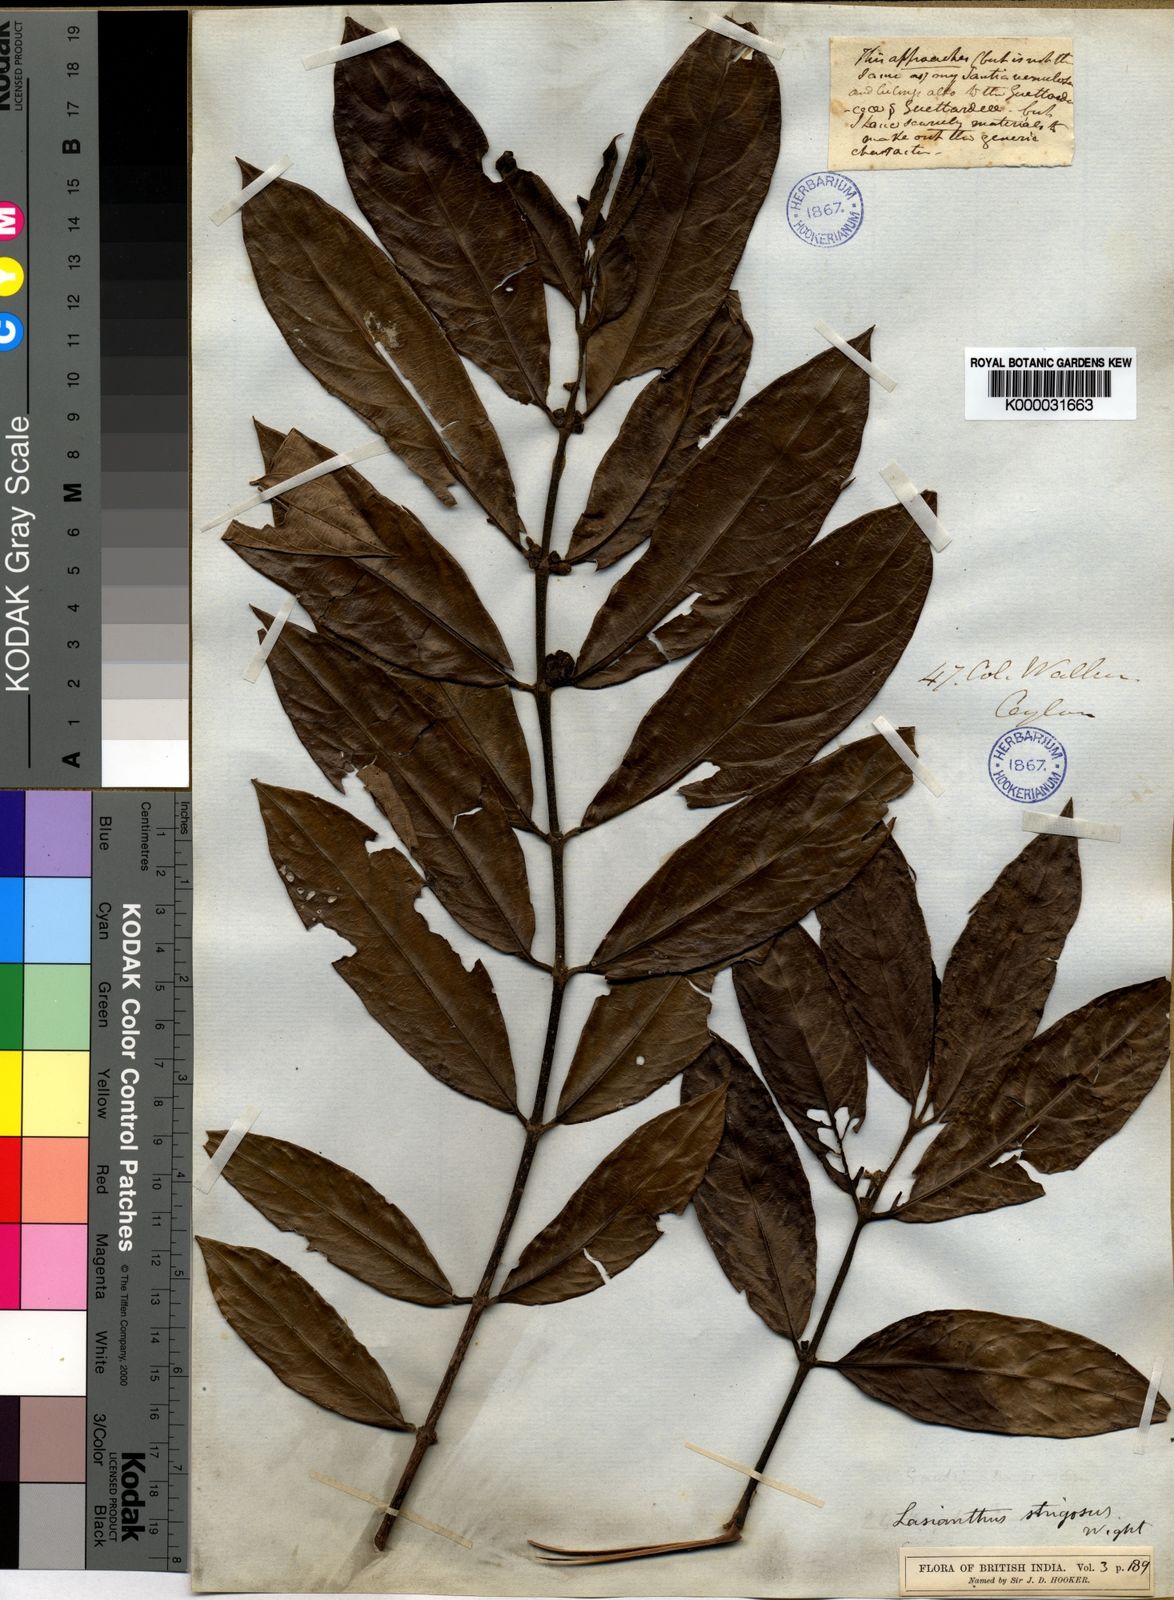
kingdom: Plantae
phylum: Tracheophyta
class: Magnoliopsida
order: Gentianales
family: Rubiaceae
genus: Lasianthus
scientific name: Lasianthus strigosus
